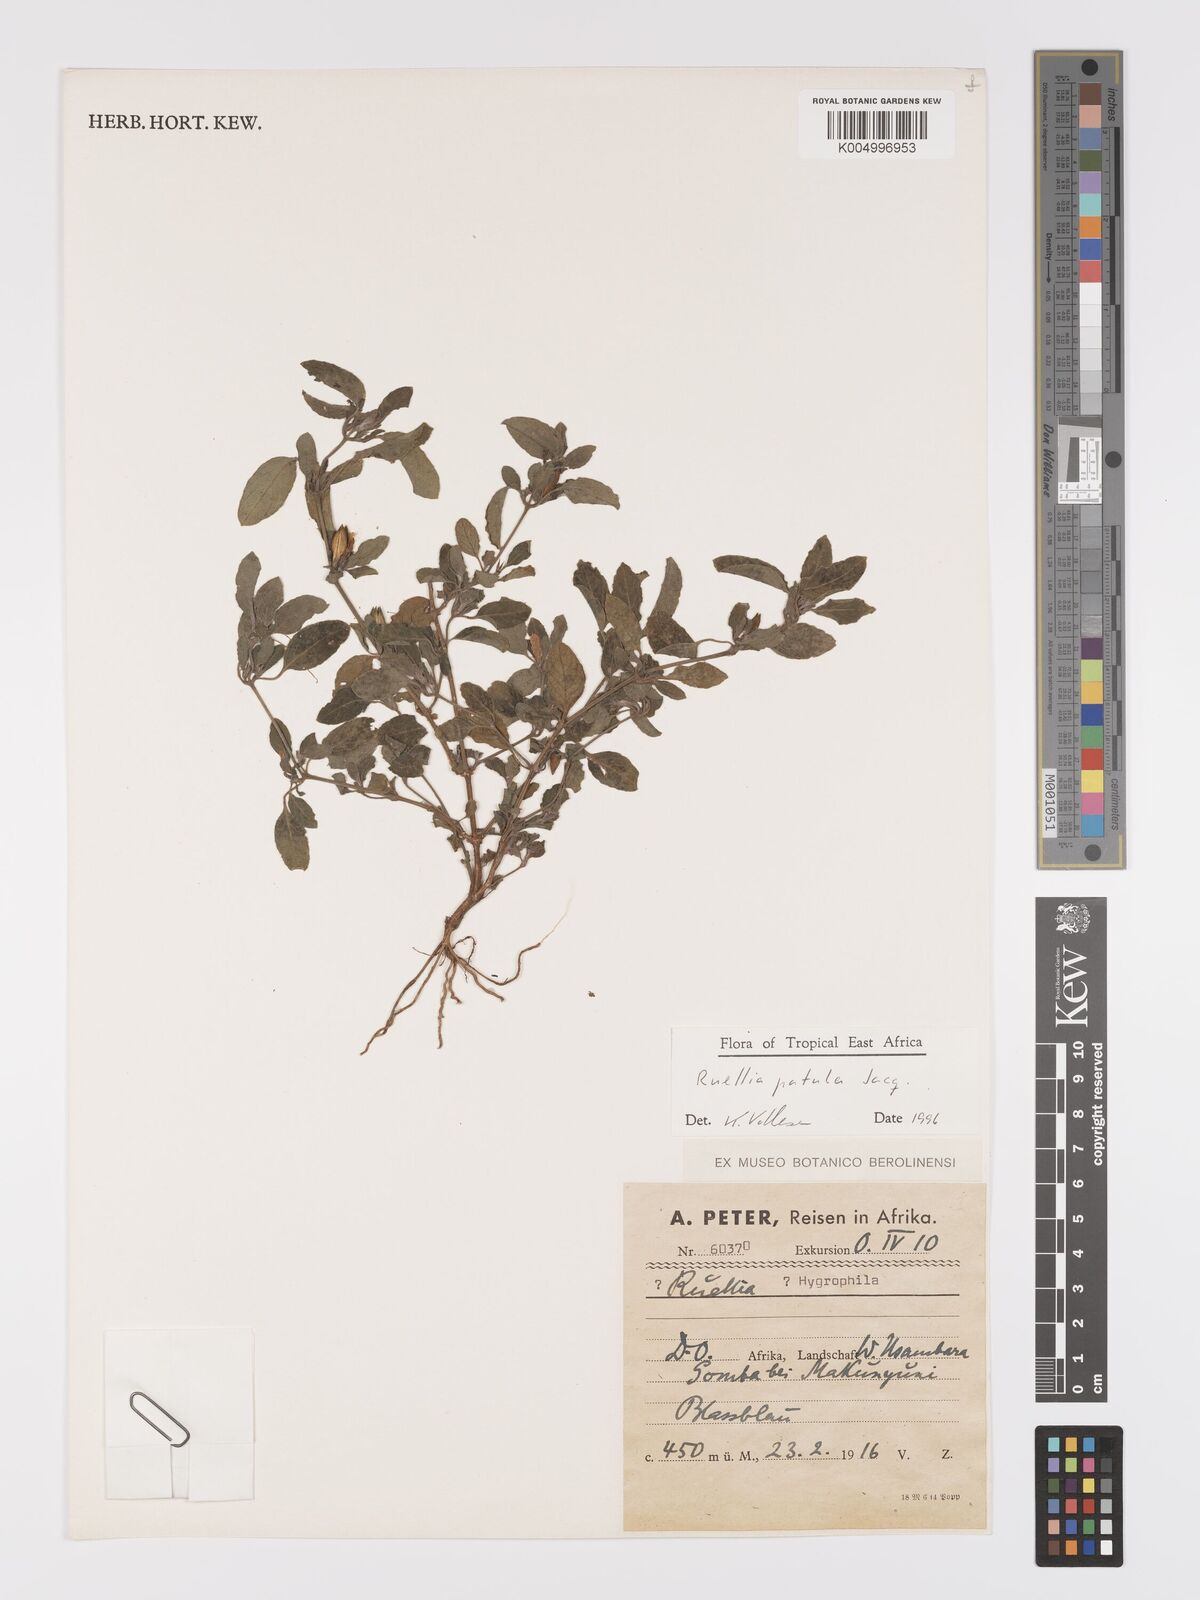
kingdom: Plantae
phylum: Tracheophyta
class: Magnoliopsida
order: Lamiales
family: Acanthaceae
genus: Ruellia
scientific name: Ruellia patula
